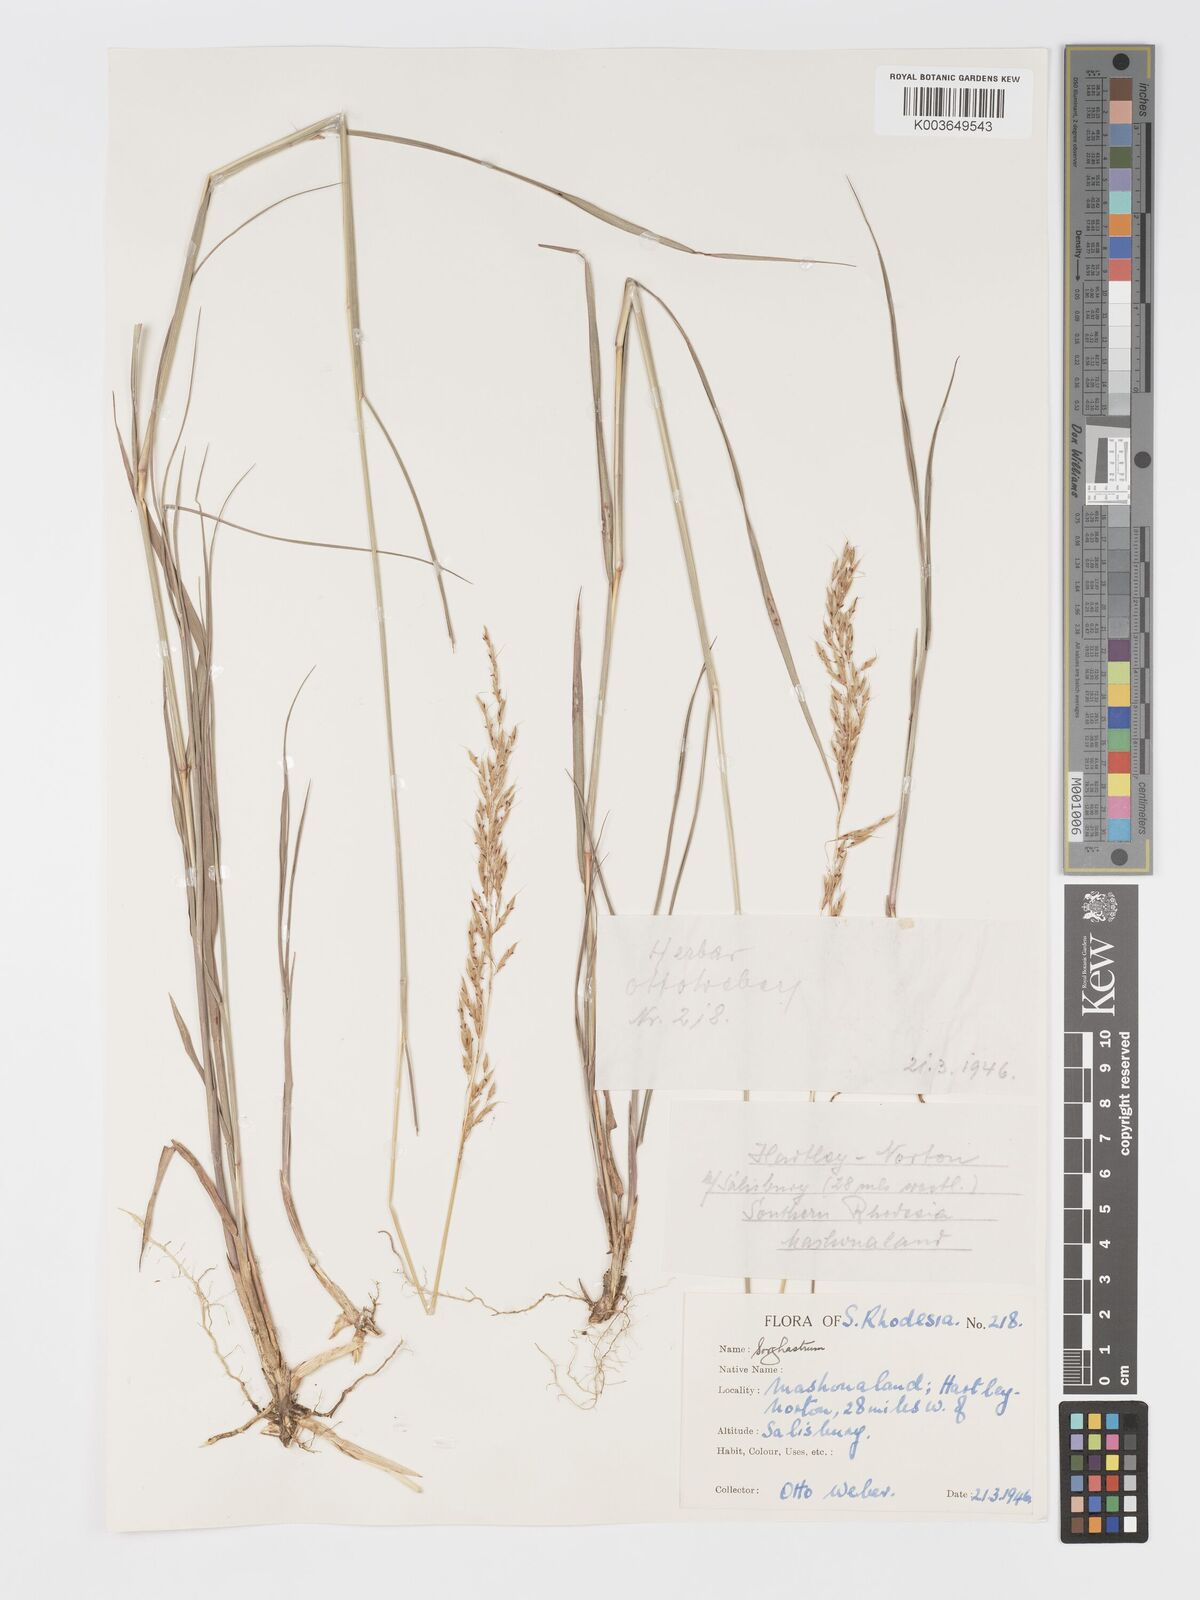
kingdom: Plantae
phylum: Tracheophyta
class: Liliopsida
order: Poales
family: Poaceae
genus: Sorghastrum
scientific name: Sorghastrum nudipes
